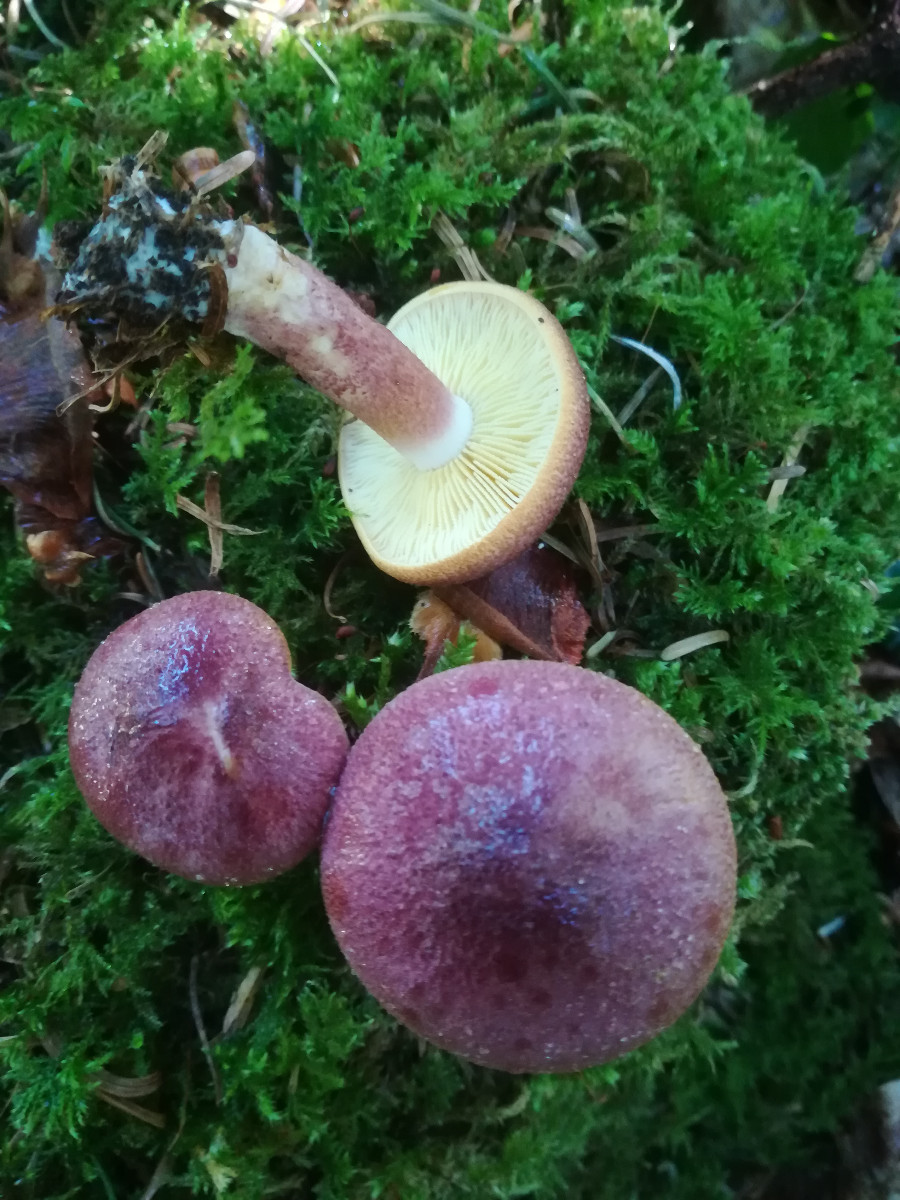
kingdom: Fungi
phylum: Basidiomycota
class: Agaricomycetes
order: Agaricales
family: Tricholomataceae
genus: Tricholomopsis
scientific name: Tricholomopsis rutilans
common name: purpur-væbnerhat
